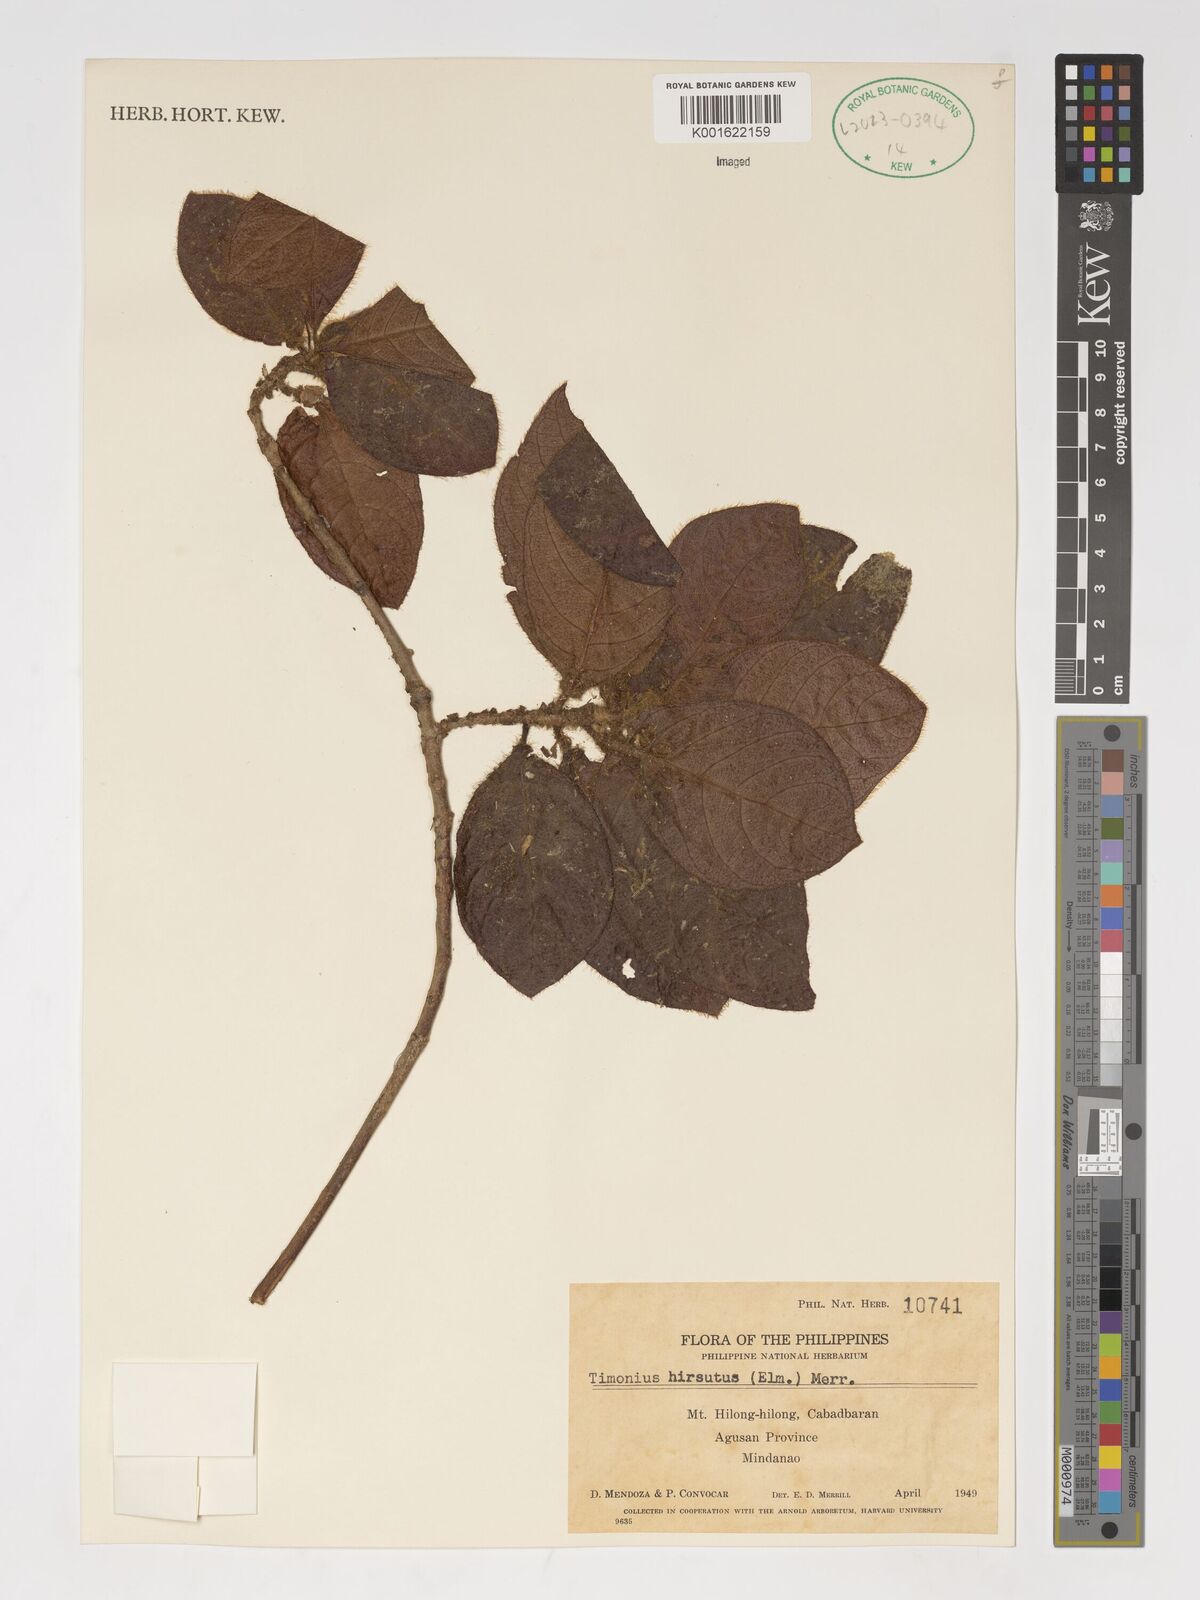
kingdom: Plantae
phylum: Tracheophyta
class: Magnoliopsida
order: Gentianales
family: Rubiaceae
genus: Timonius
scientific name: Timonius hirsutus
